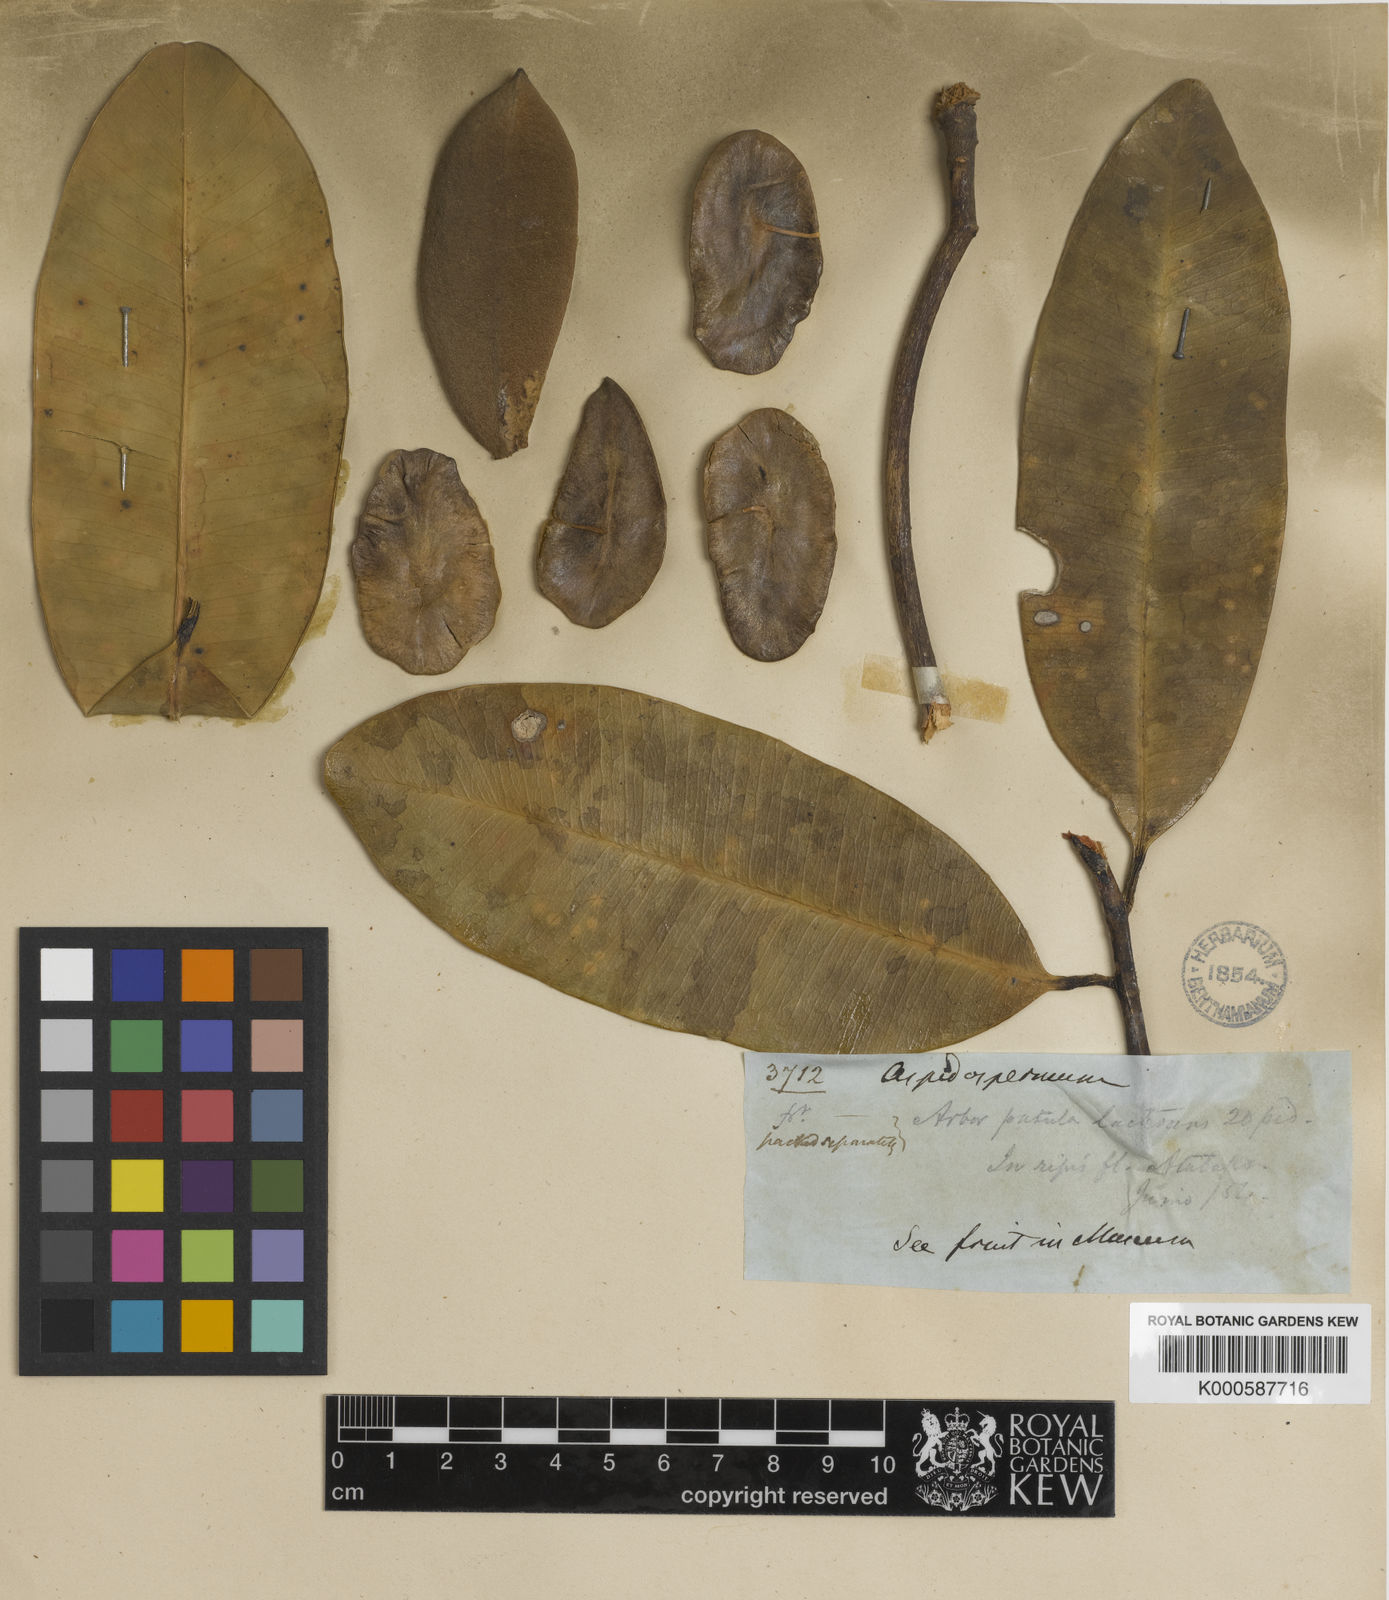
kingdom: Plantae
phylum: Tracheophyta
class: Magnoliopsida
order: Gentianales
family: Apocynaceae
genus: Aspidosperma
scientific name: Aspidosperma album
